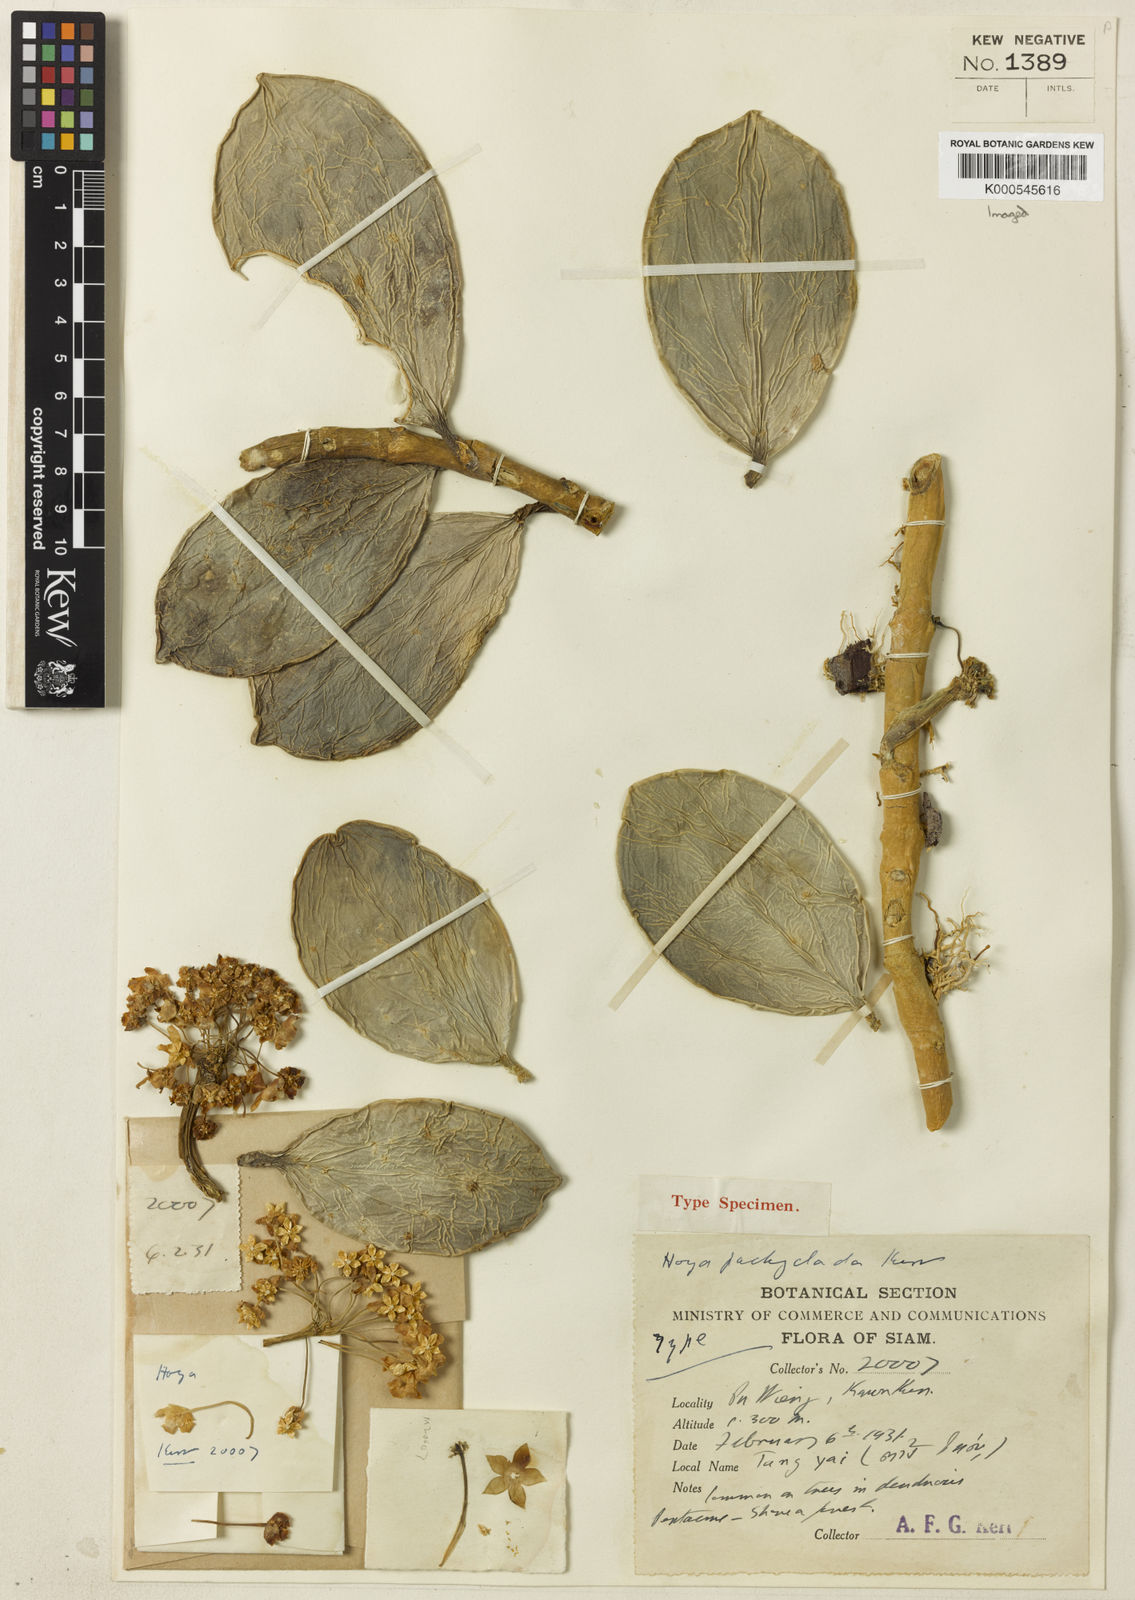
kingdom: Plantae
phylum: Tracheophyta
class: Magnoliopsida
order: Gentianales
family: Apocynaceae
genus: Hoya
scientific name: Hoya pachyclada
